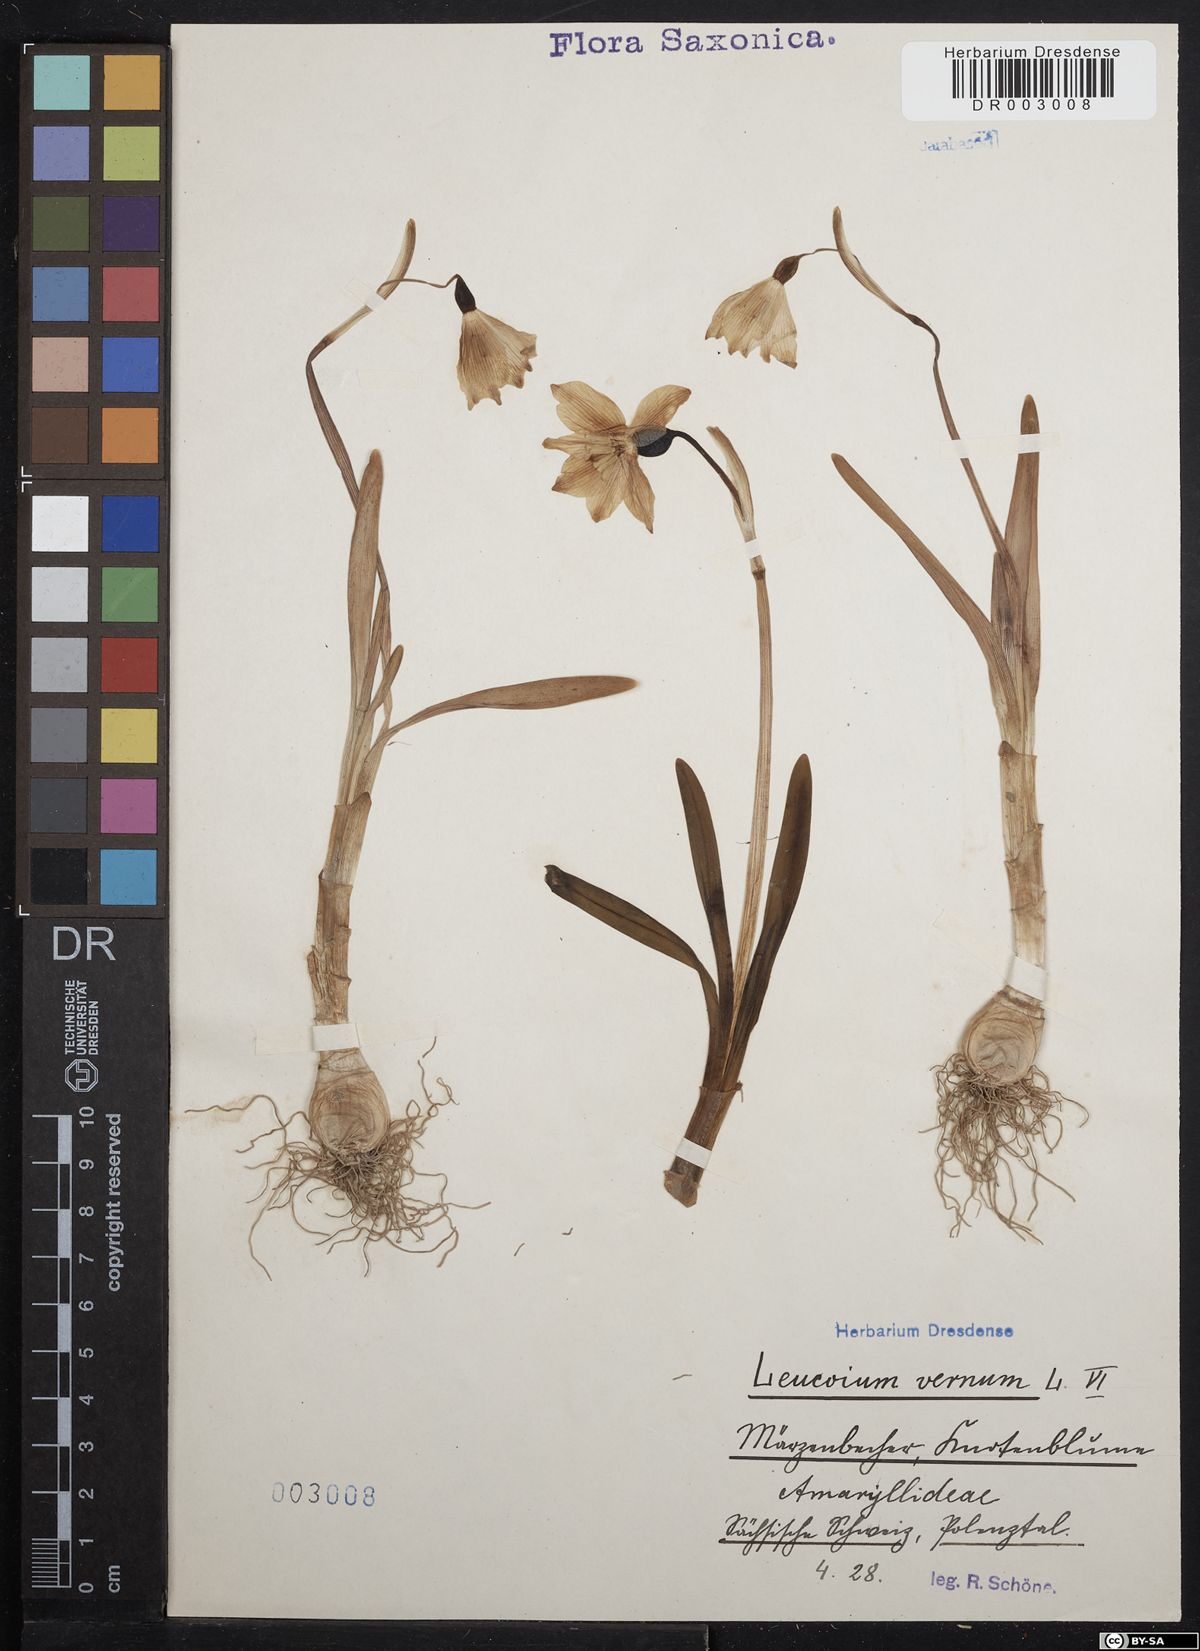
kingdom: Plantae
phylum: Tracheophyta
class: Liliopsida
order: Asparagales
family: Amaryllidaceae
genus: Leucojum
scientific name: Leucojum vernum
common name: Spring snowflake
